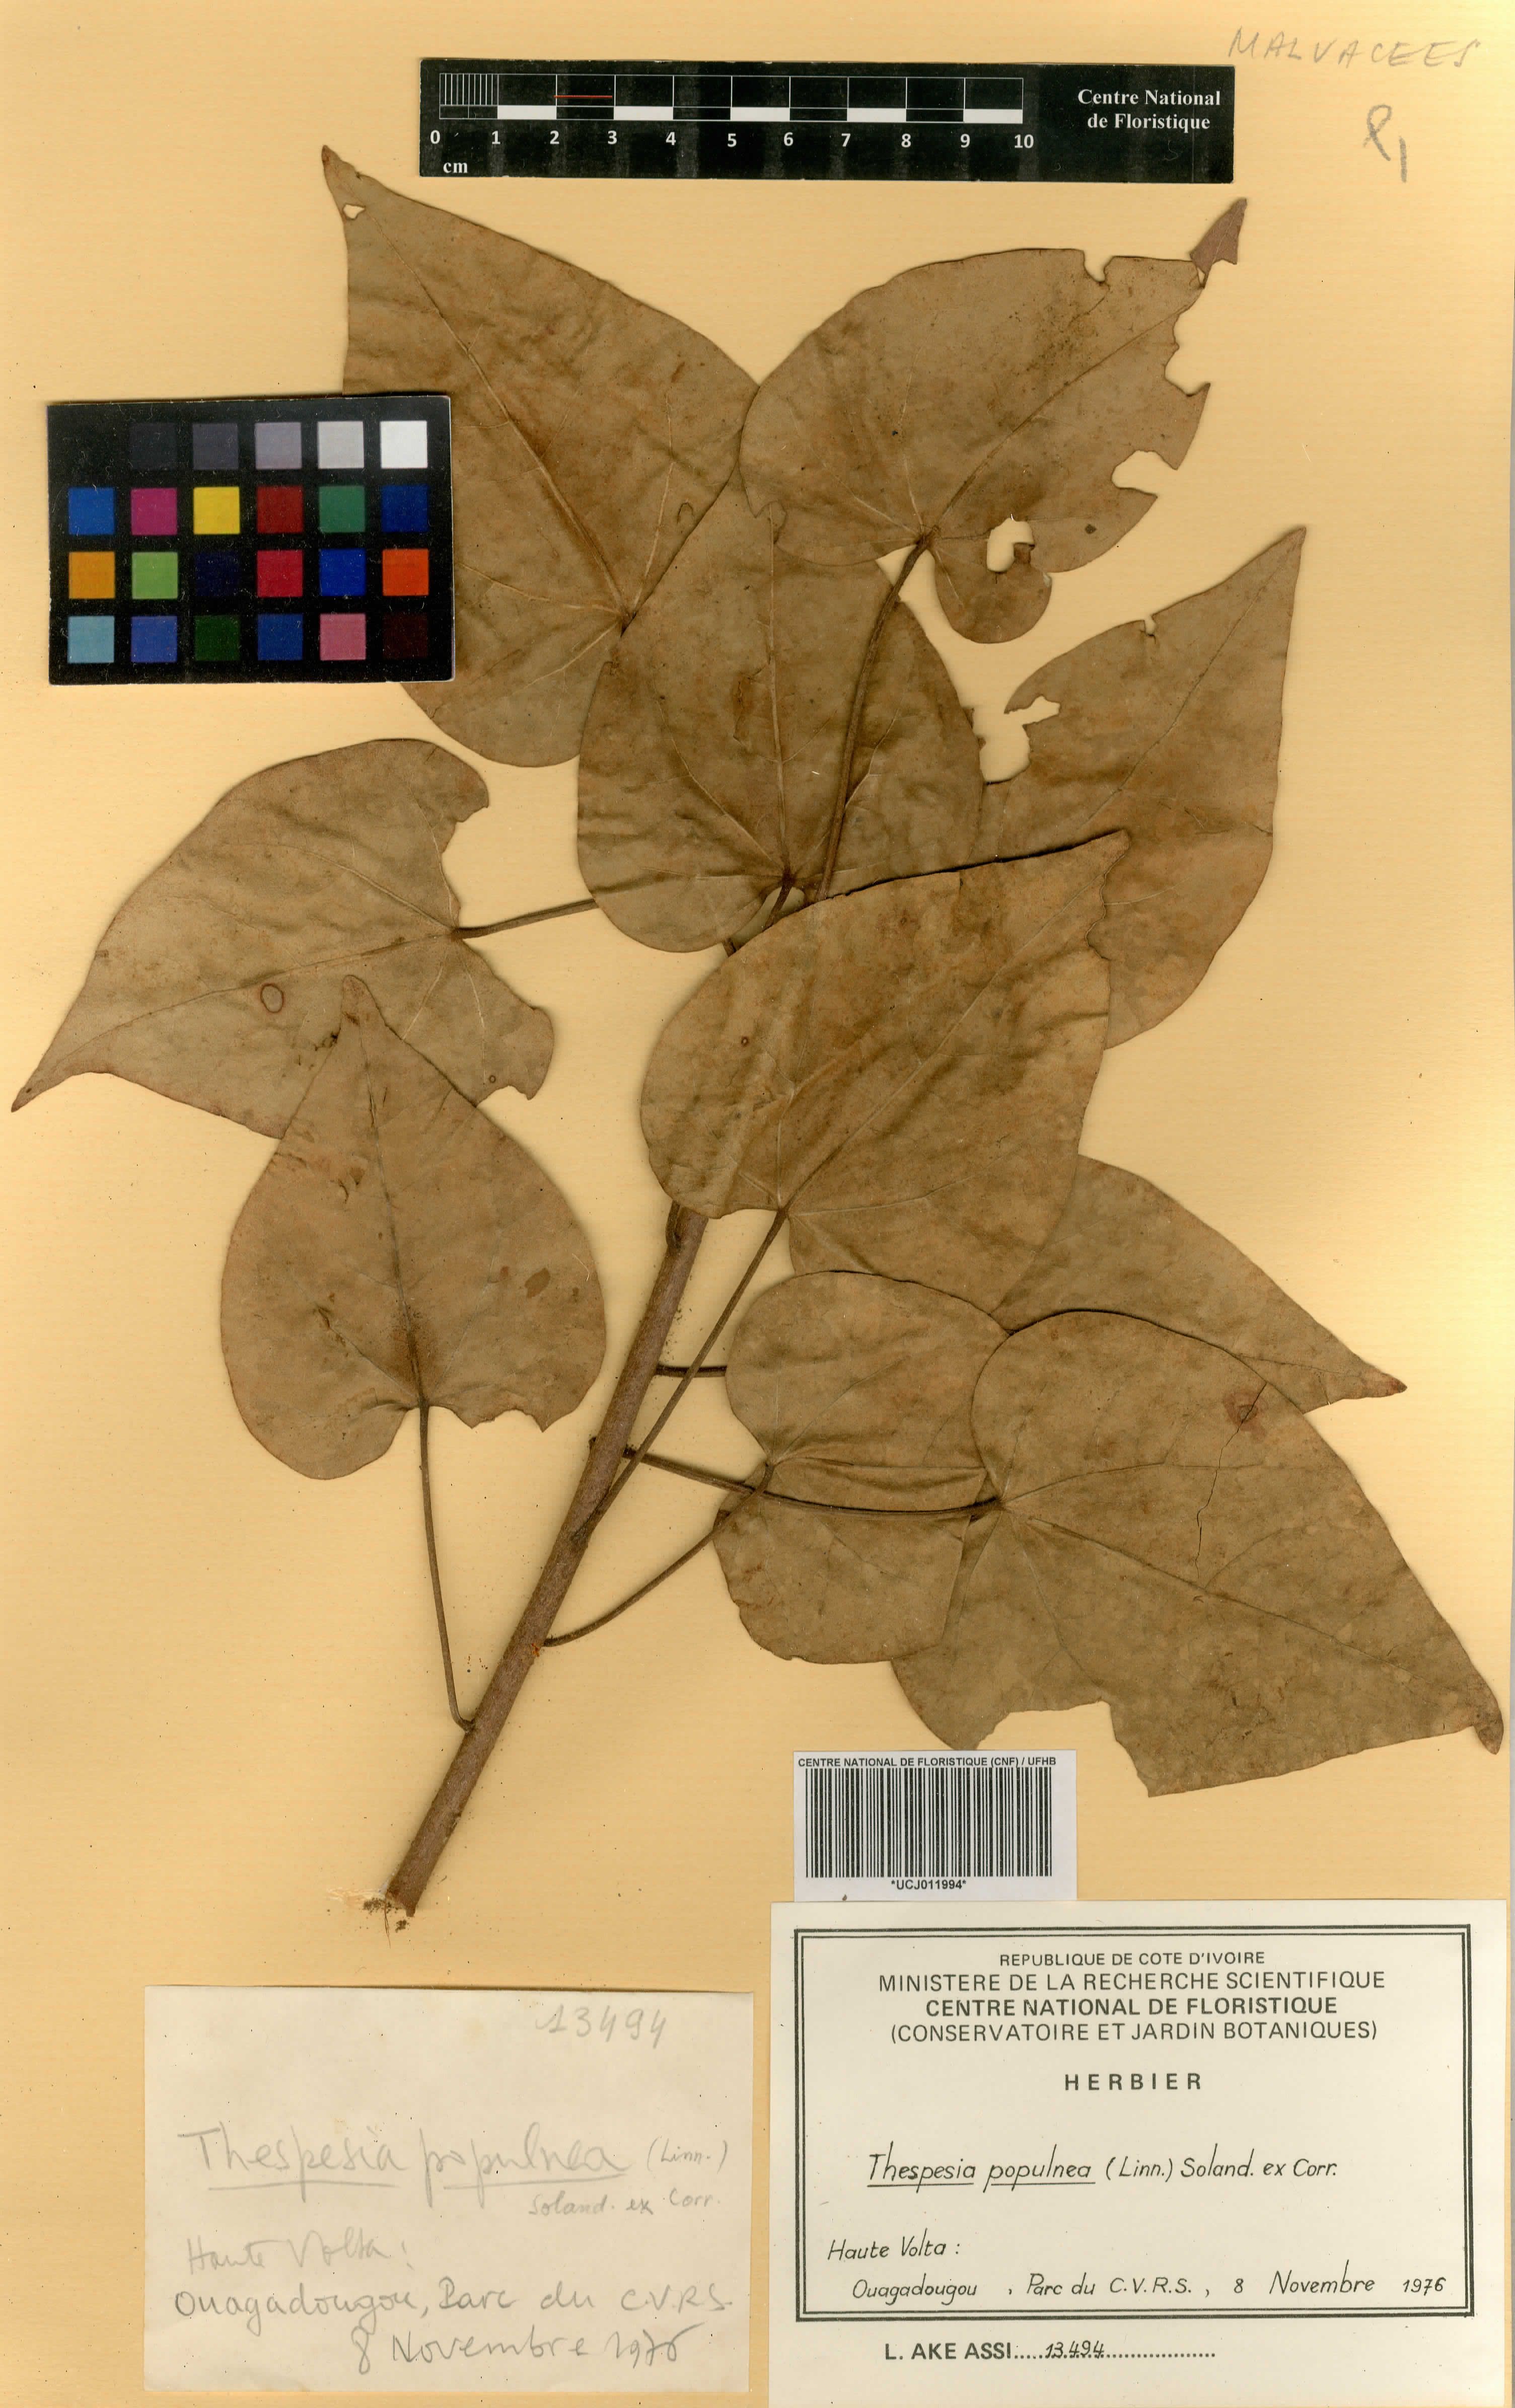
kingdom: Plantae
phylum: Tracheophyta
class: Magnoliopsida
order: Malvales
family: Malvaceae
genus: Thespesia
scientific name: Thespesia populnea
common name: Seaside mahoe
